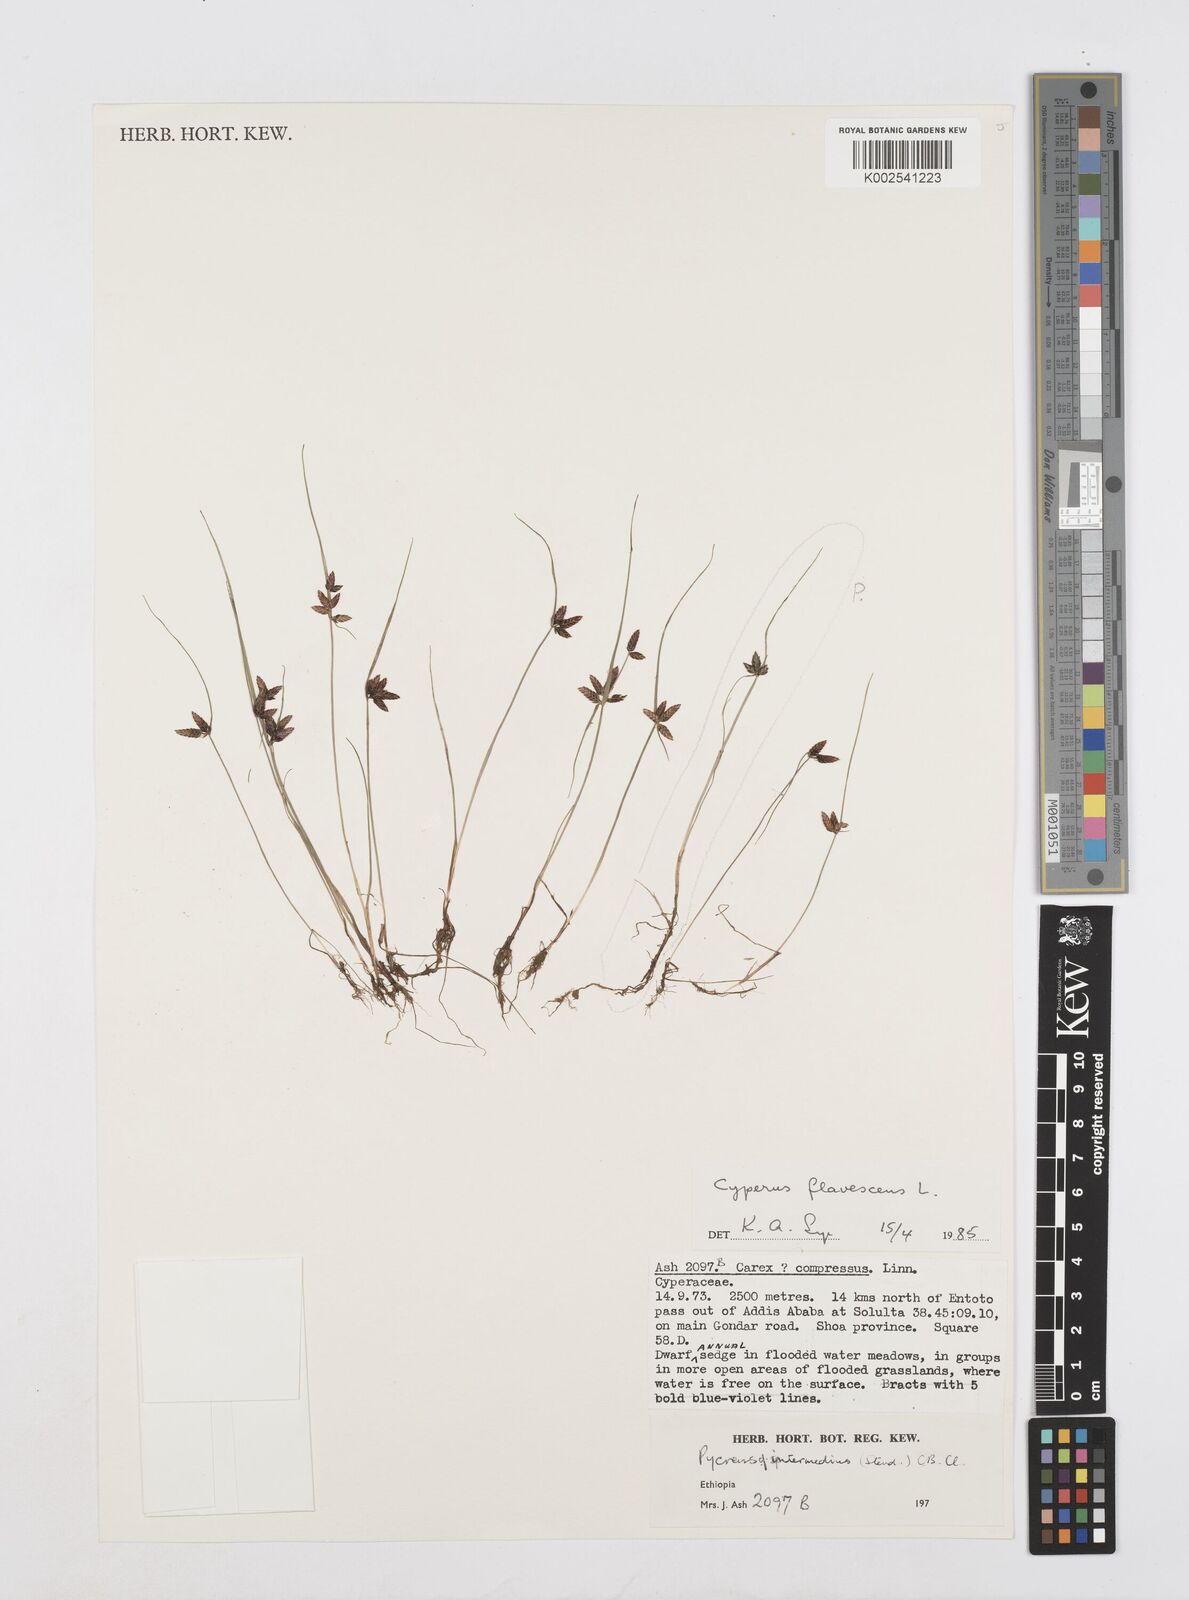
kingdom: Plantae
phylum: Tracheophyta
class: Liliopsida
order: Poales
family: Cyperaceae
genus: Cyperus
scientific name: Cyperus flavescens
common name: Yellow galingale
